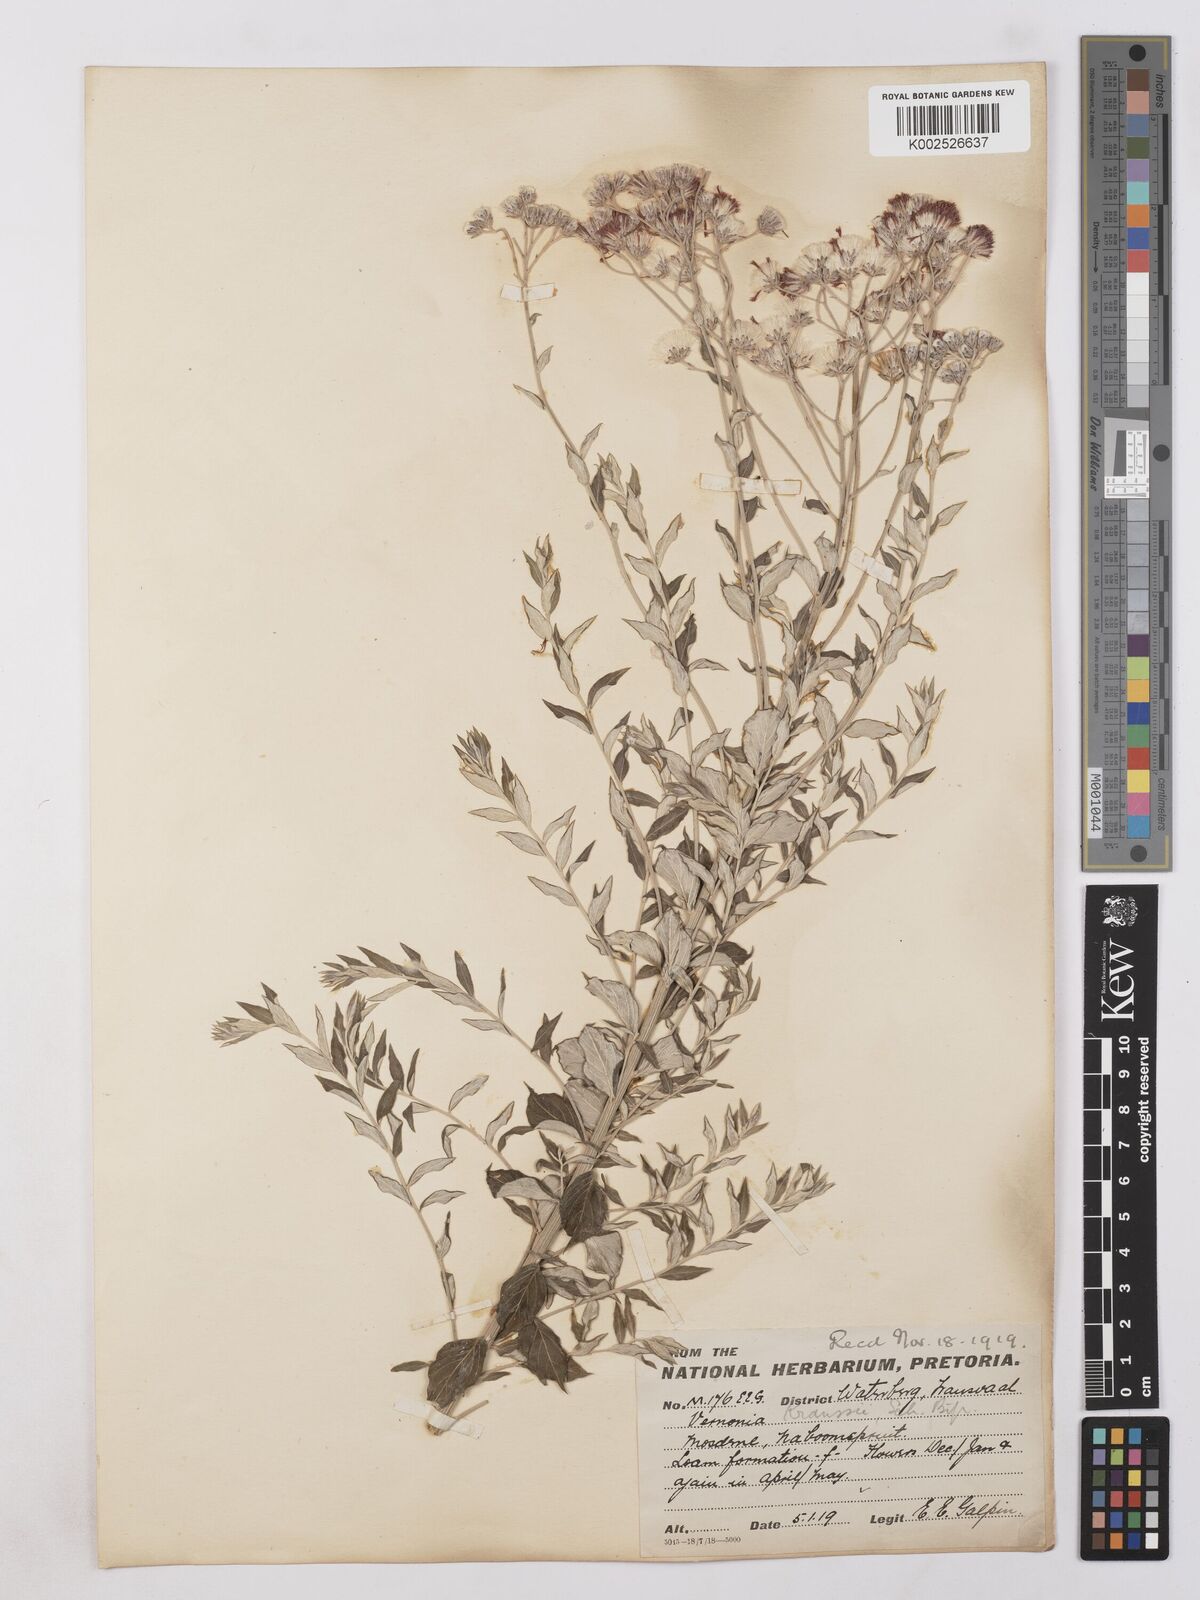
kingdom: Plantae
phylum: Tracheophyta
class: Magnoliopsida
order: Asterales
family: Asteraceae
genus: Hilliardiella
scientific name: Hilliardiella oligocephala
